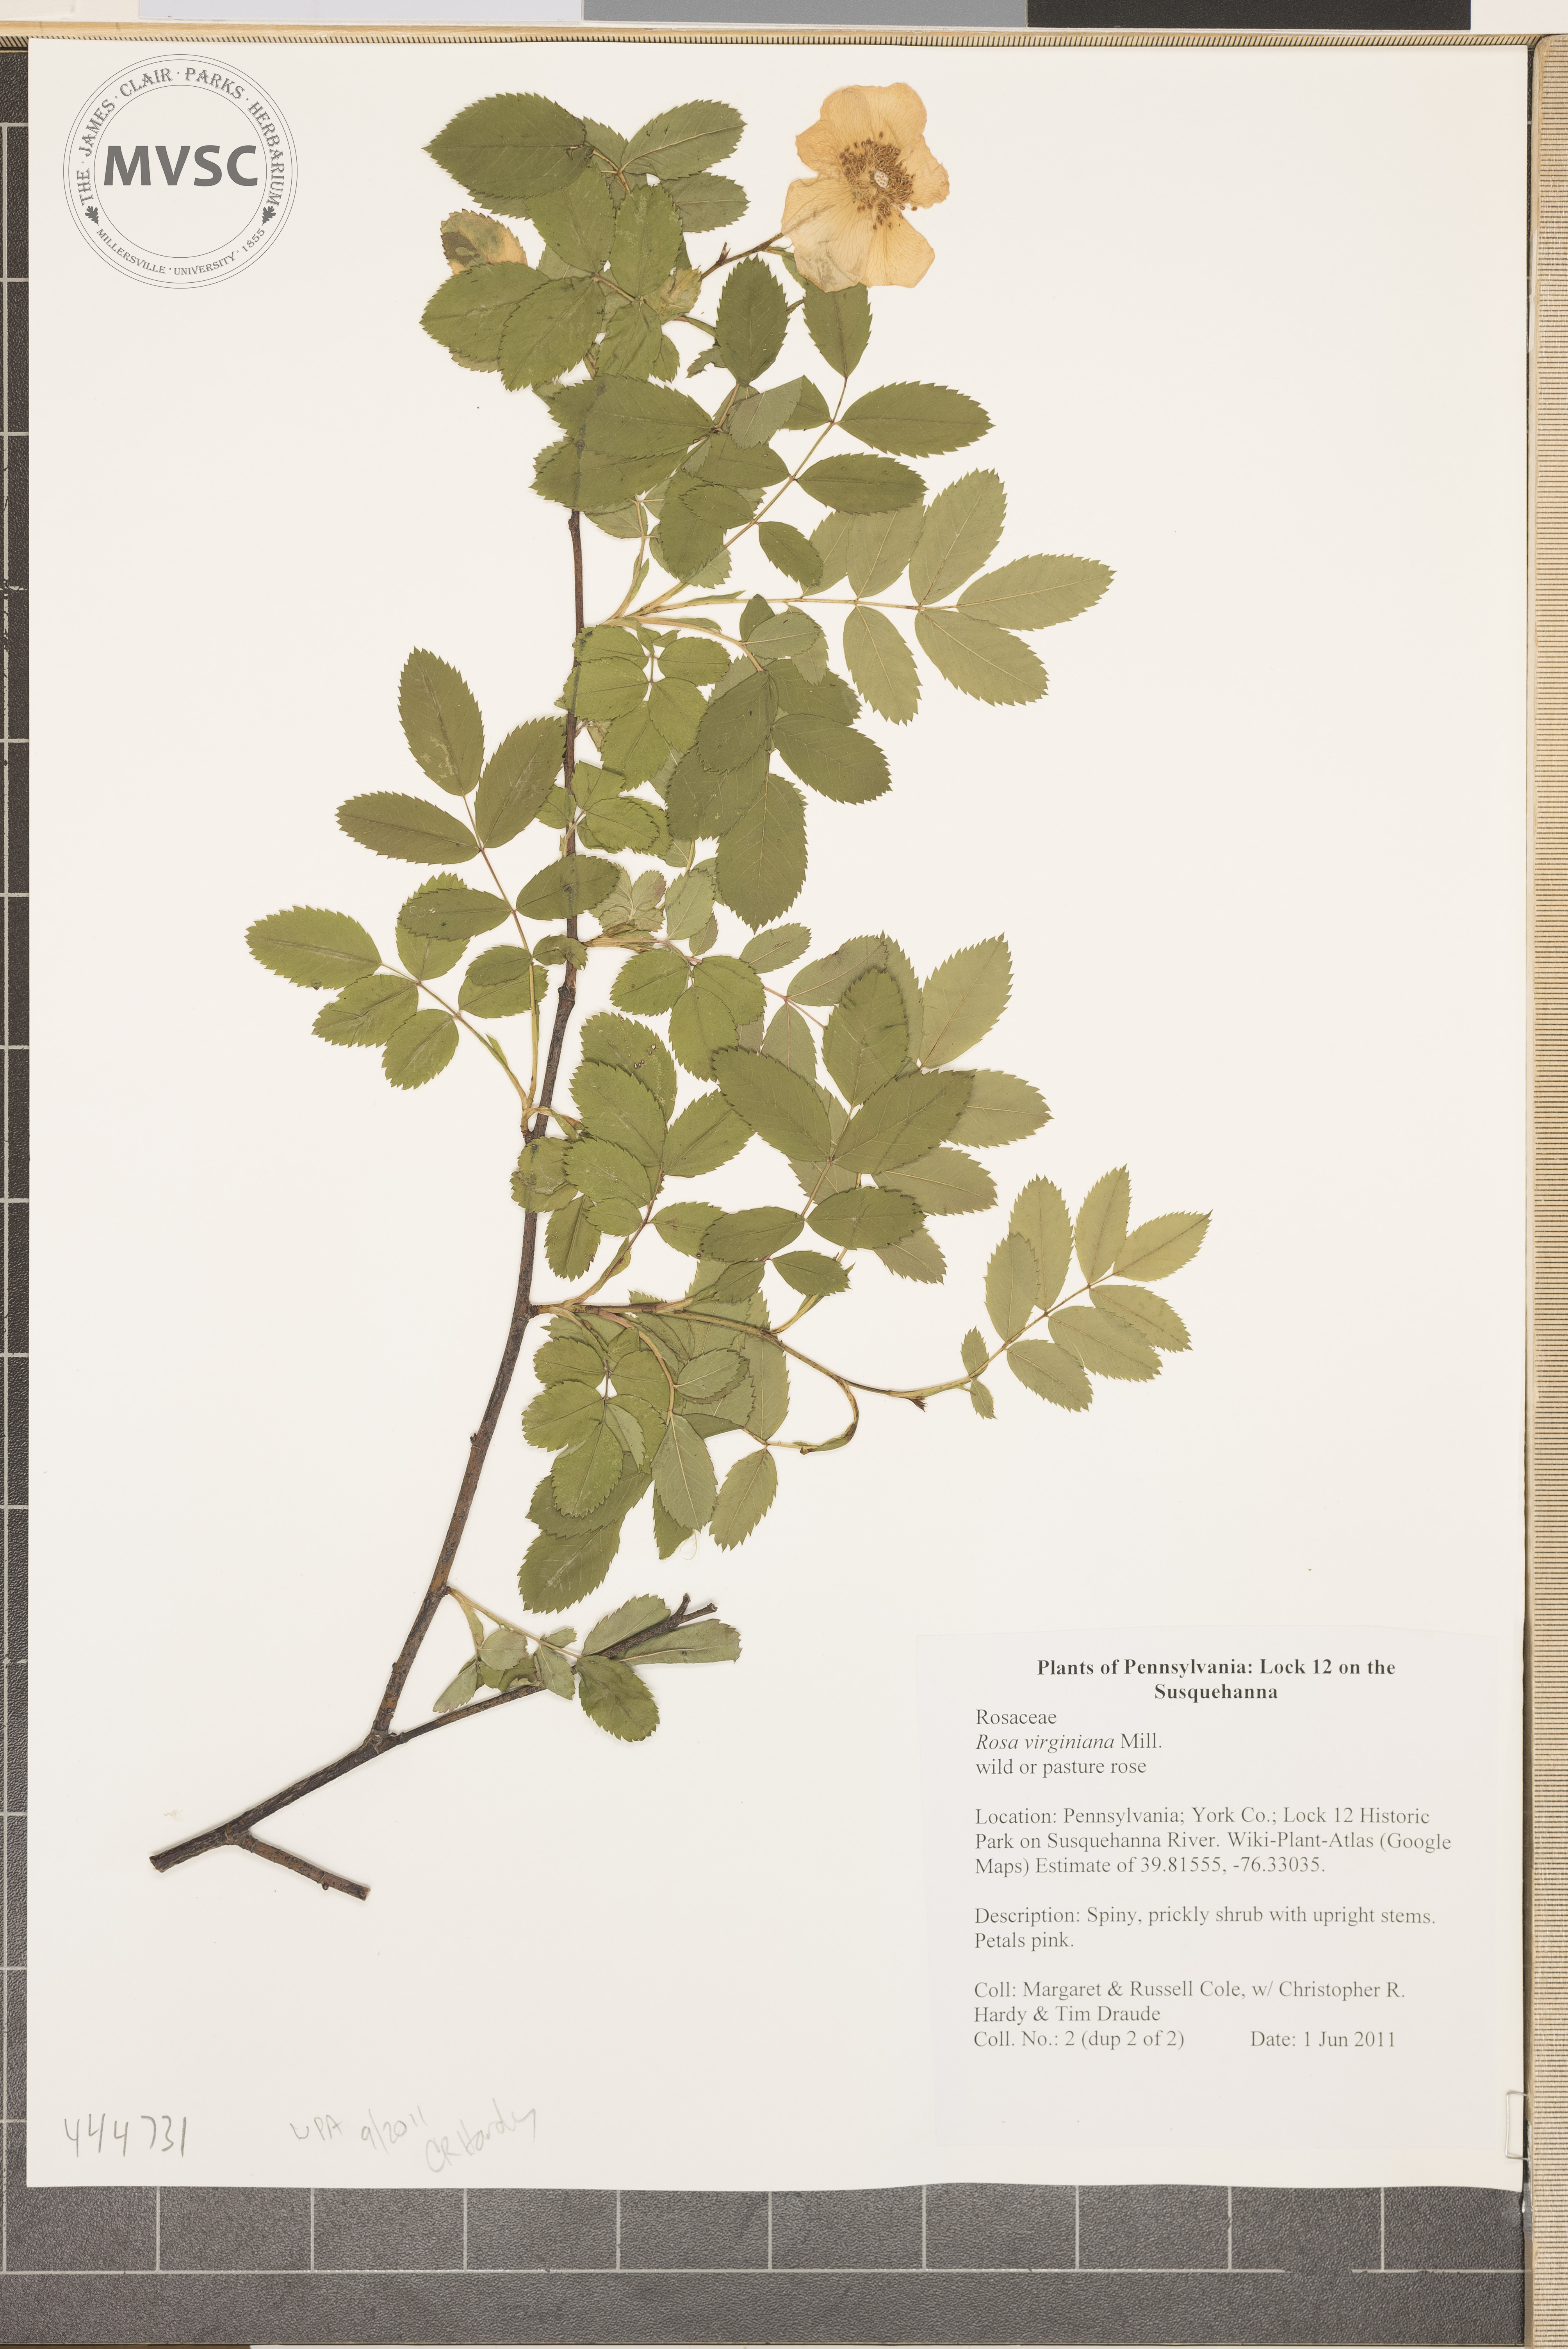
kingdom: Plantae
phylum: Tracheophyta
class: Magnoliopsida
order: Rosales
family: Rosaceae
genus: Rosa
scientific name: Rosa carolina
